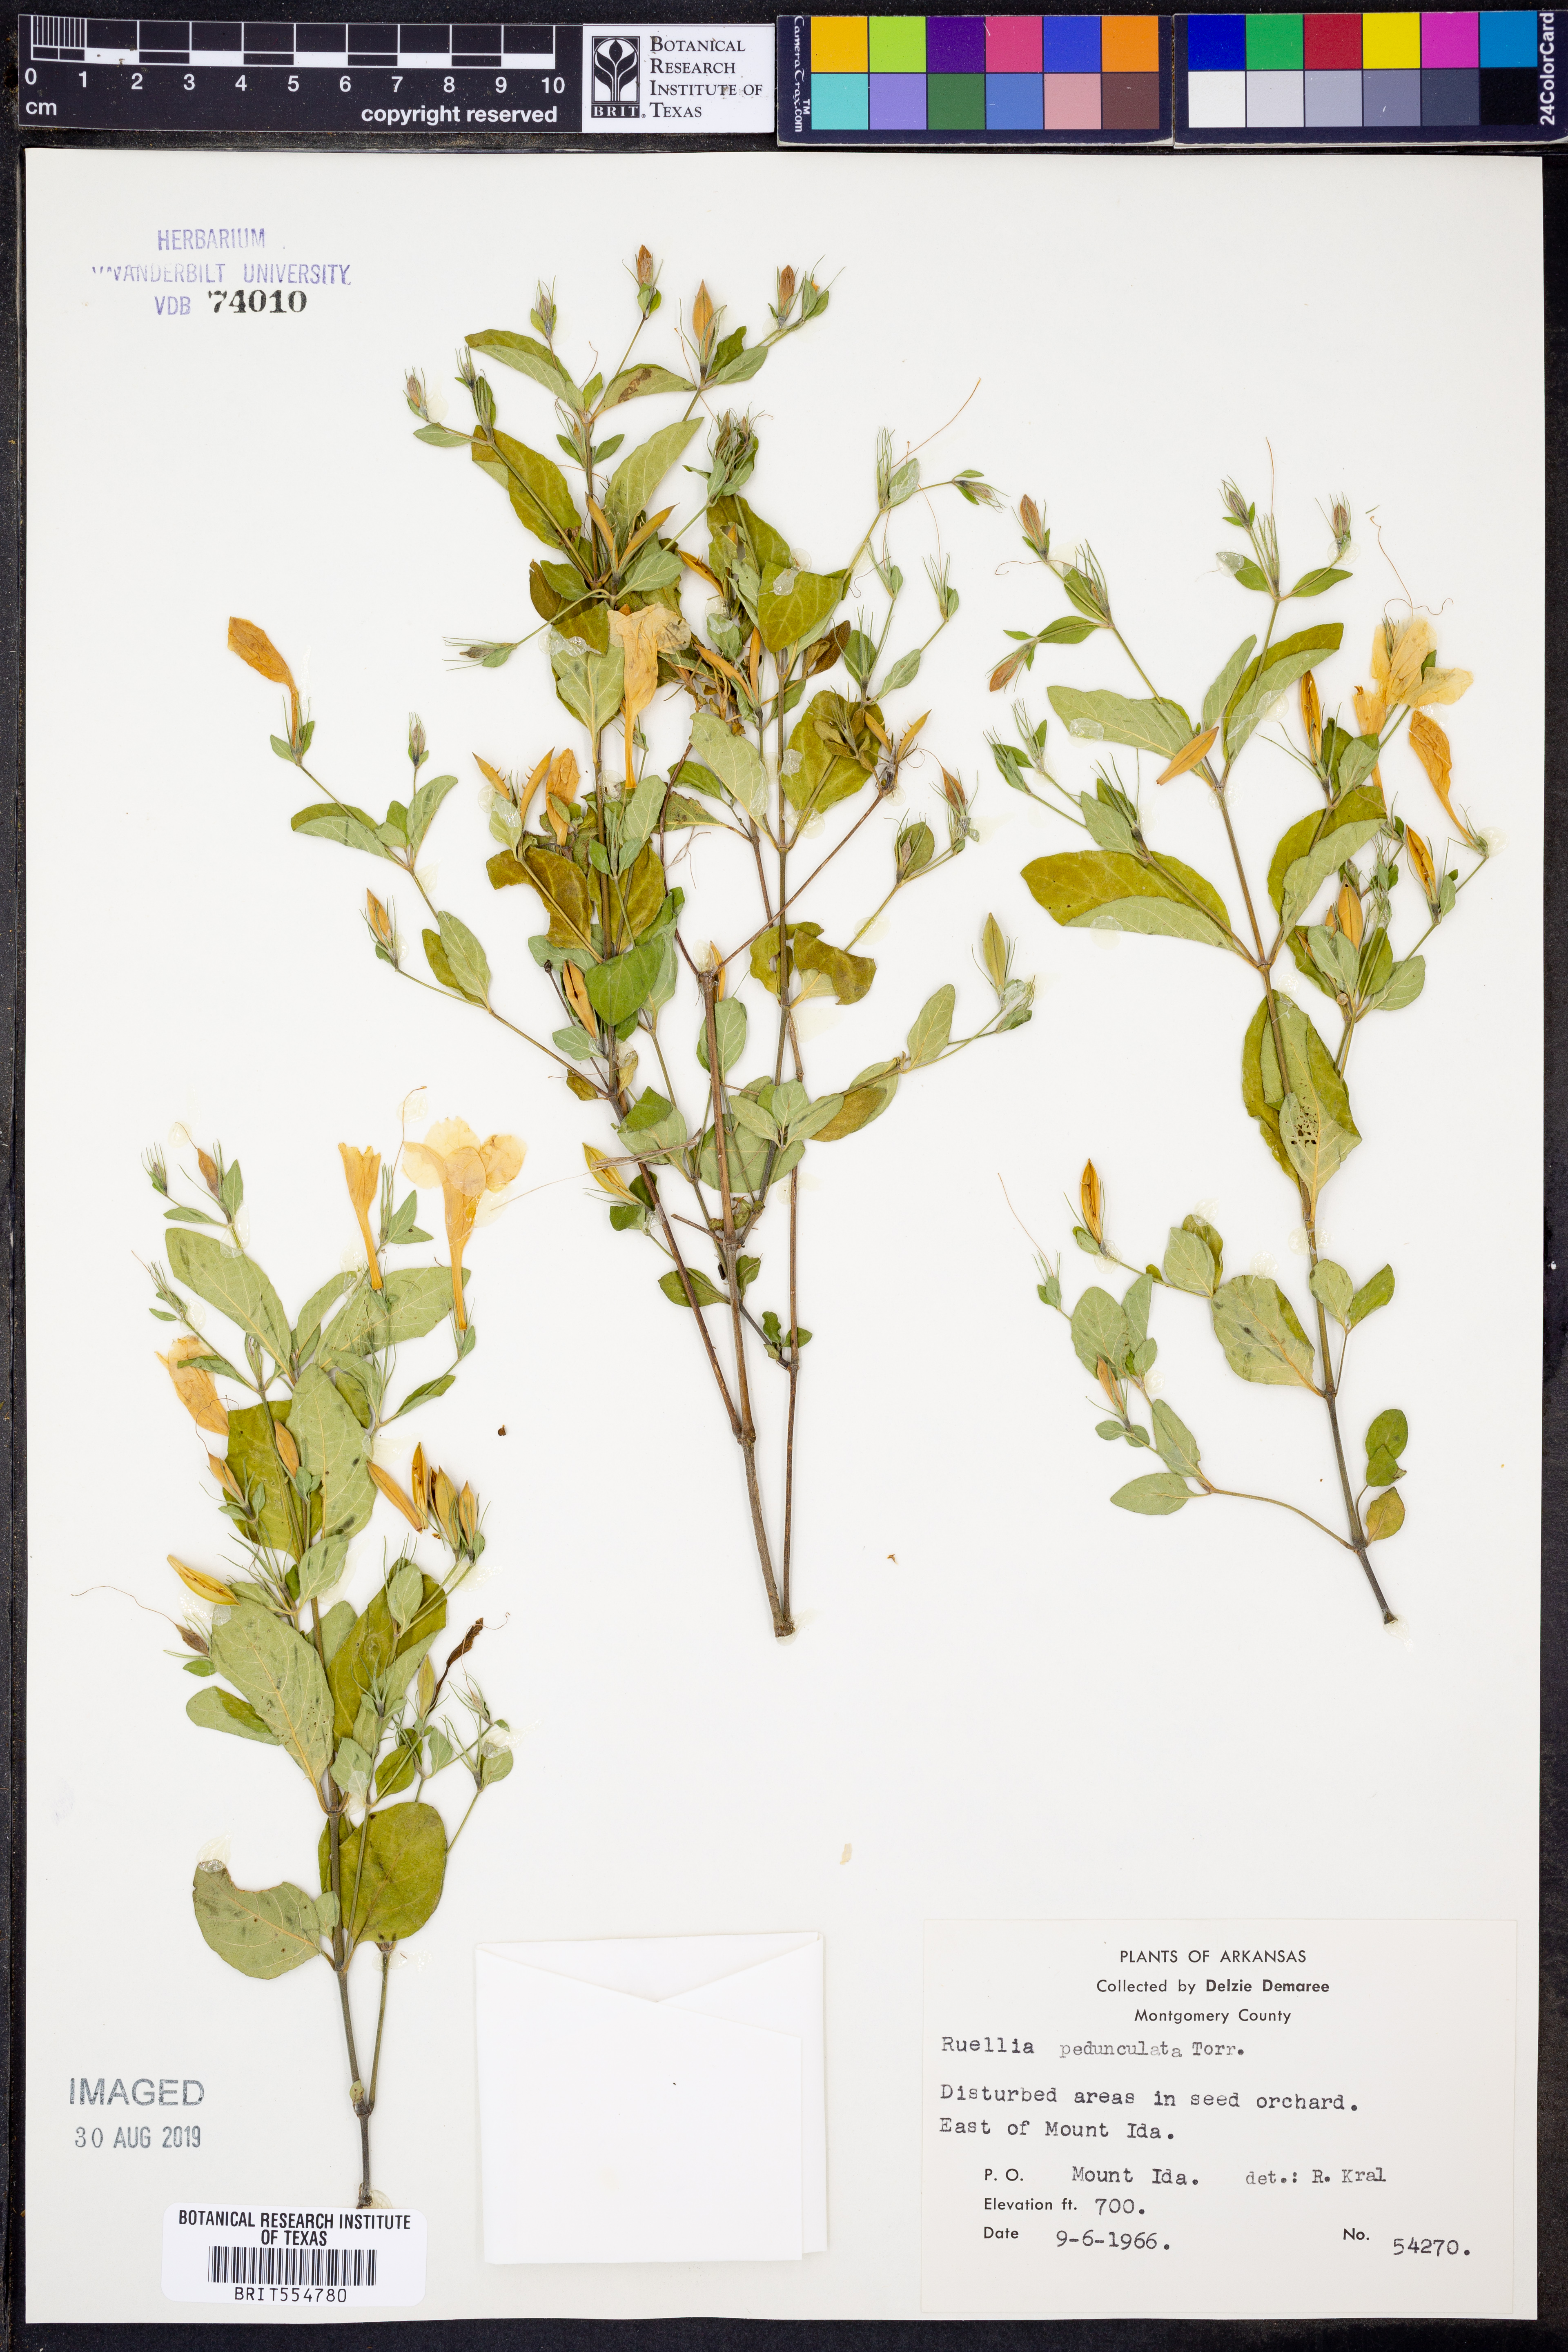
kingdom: Plantae
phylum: Tracheophyta
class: Magnoliopsida
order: Lamiales
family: Acanthaceae
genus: Ruellia
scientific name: Ruellia pedunculata
